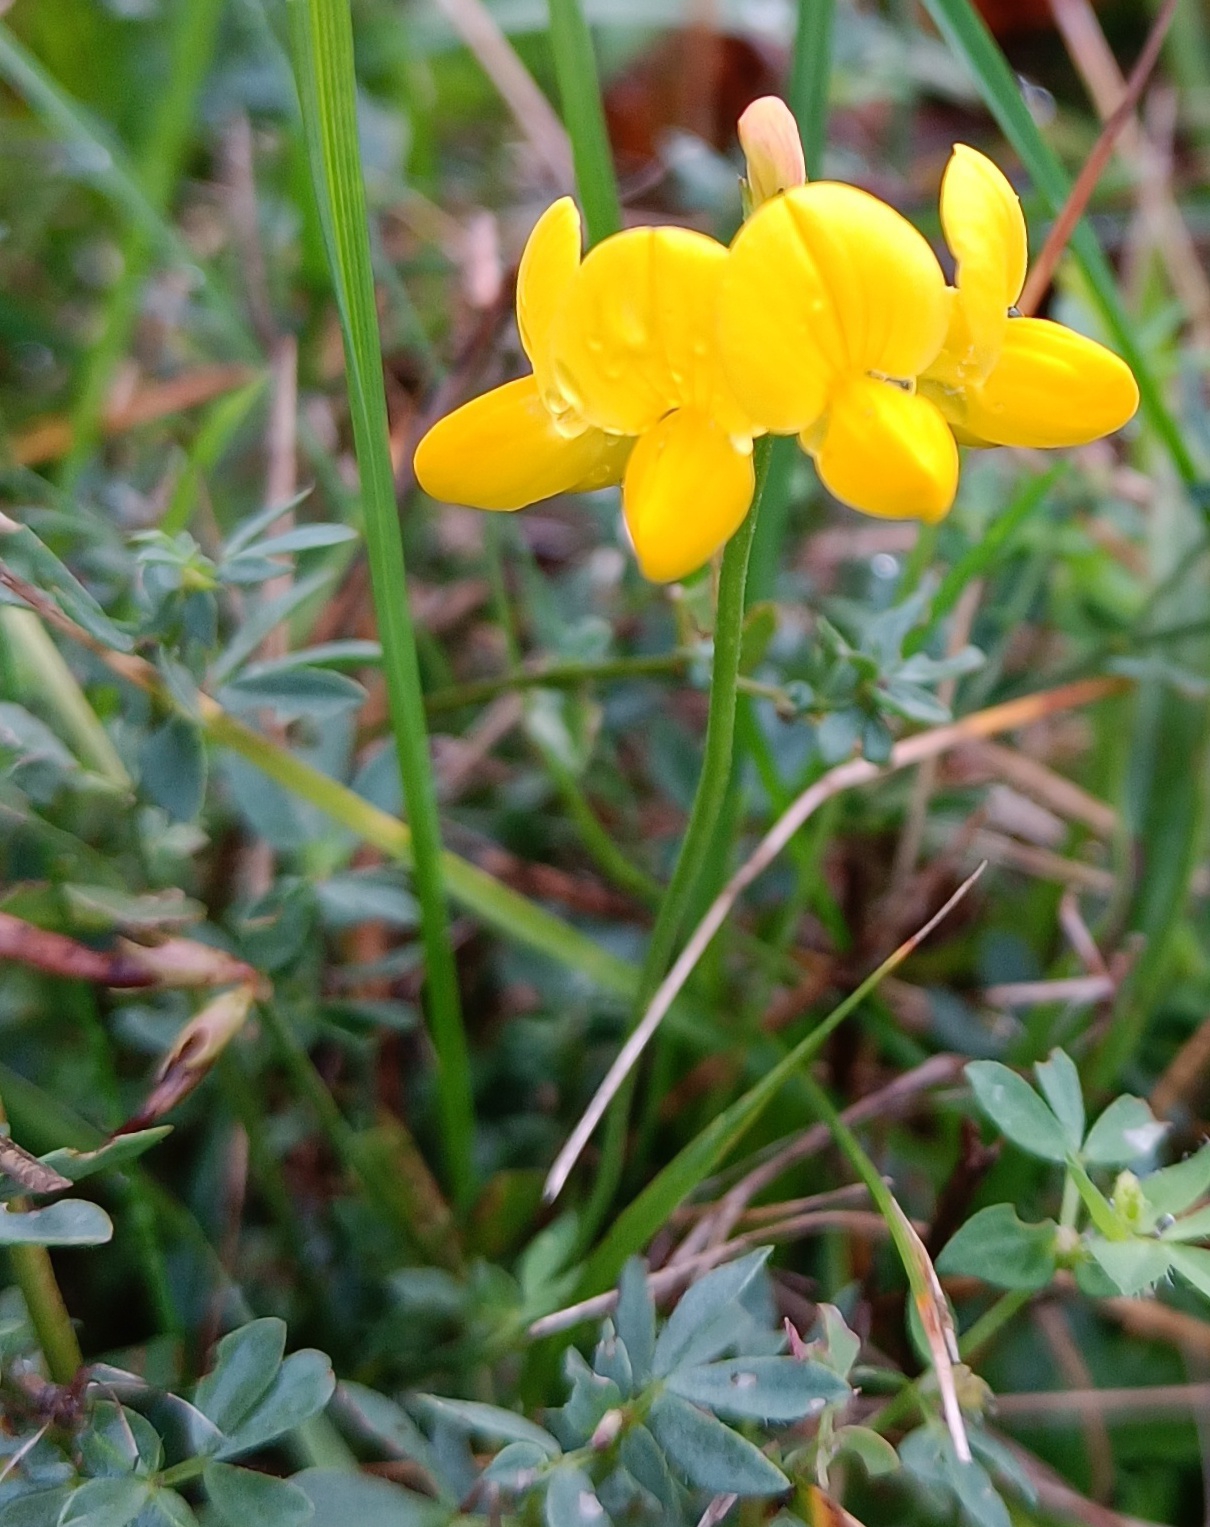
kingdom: Plantae
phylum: Tracheophyta
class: Magnoliopsida
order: Fabales
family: Fabaceae
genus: Lotus
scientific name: Lotus corniculatus
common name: Almindelig kællingetand
